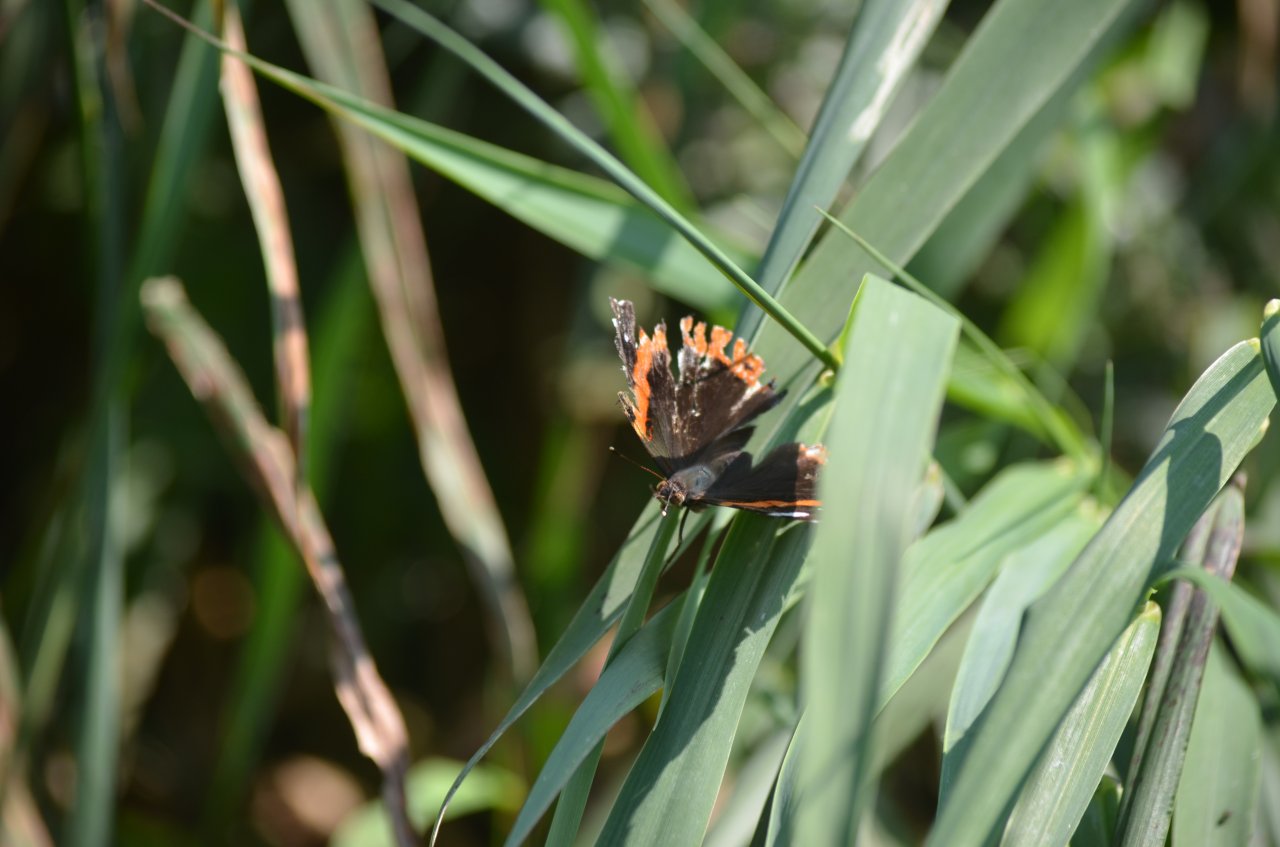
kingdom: Animalia
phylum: Arthropoda
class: Insecta
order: Lepidoptera
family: Nymphalidae
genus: Vanessa
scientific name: Vanessa atalanta
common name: Red Admiral
